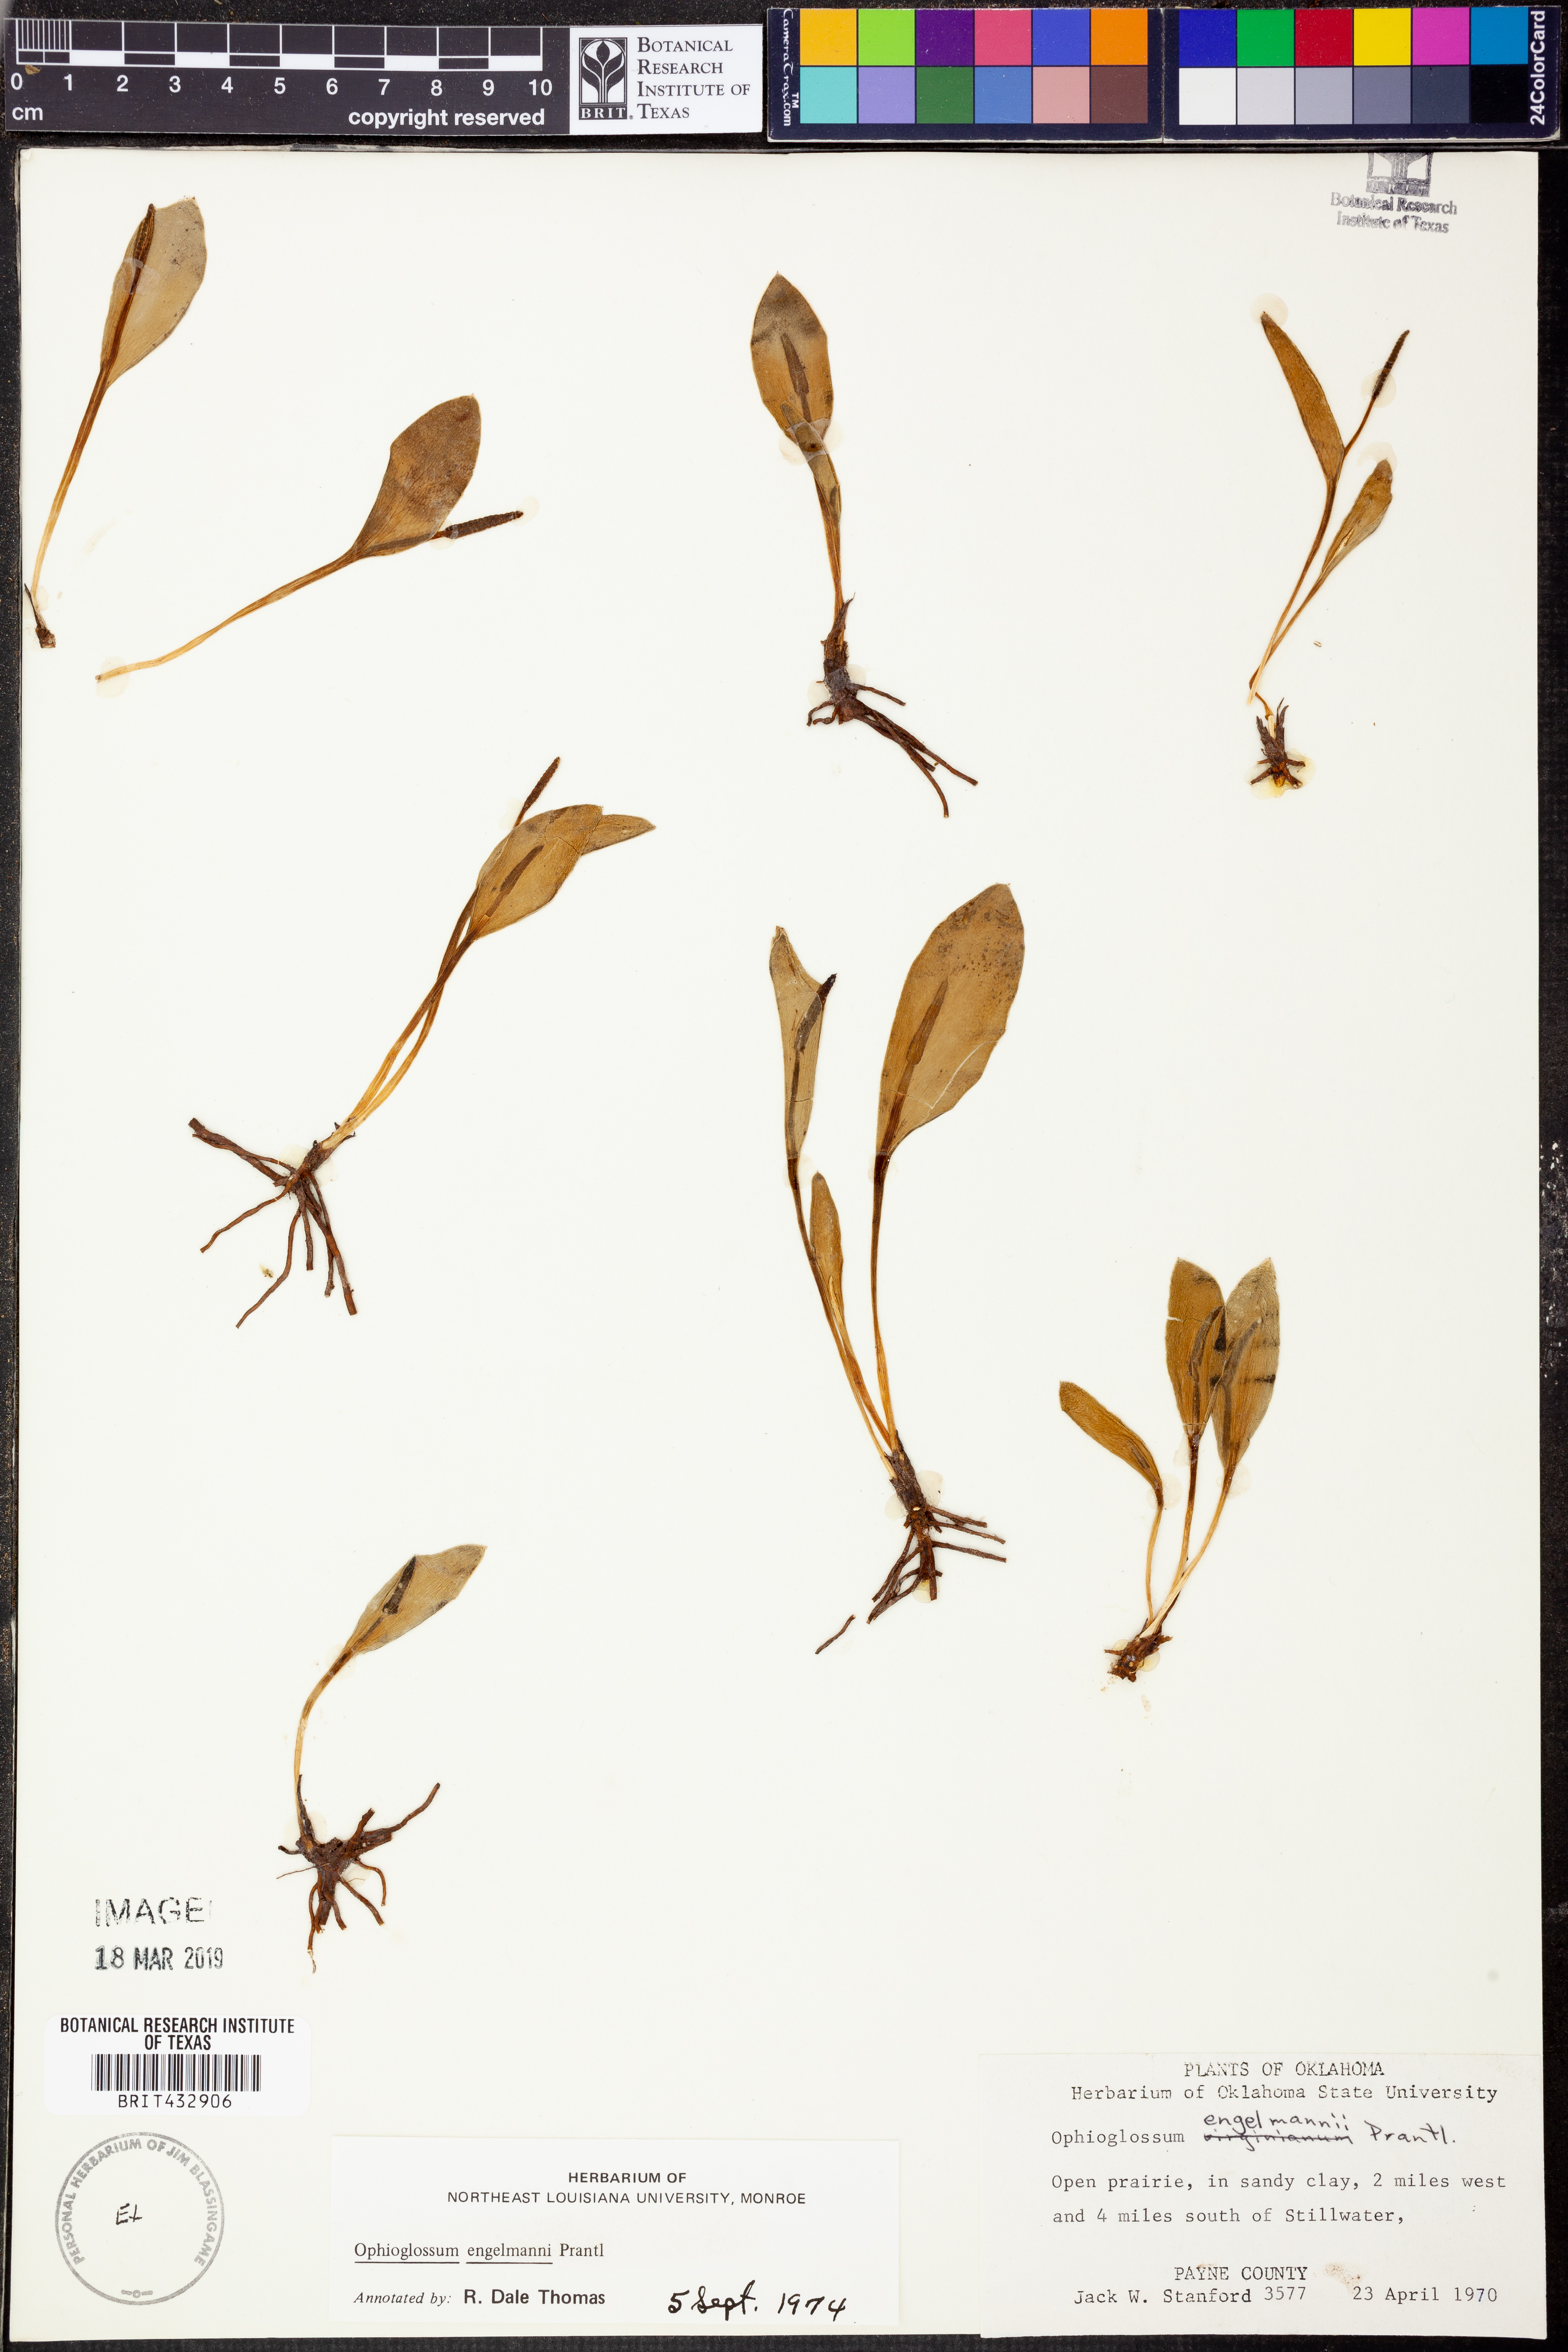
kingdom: Plantae
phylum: Tracheophyta
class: Polypodiopsida
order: Ophioglossales
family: Ophioglossaceae
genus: Ophioglossum
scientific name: Ophioglossum engelmannii
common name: Limestone adder's-tongue
